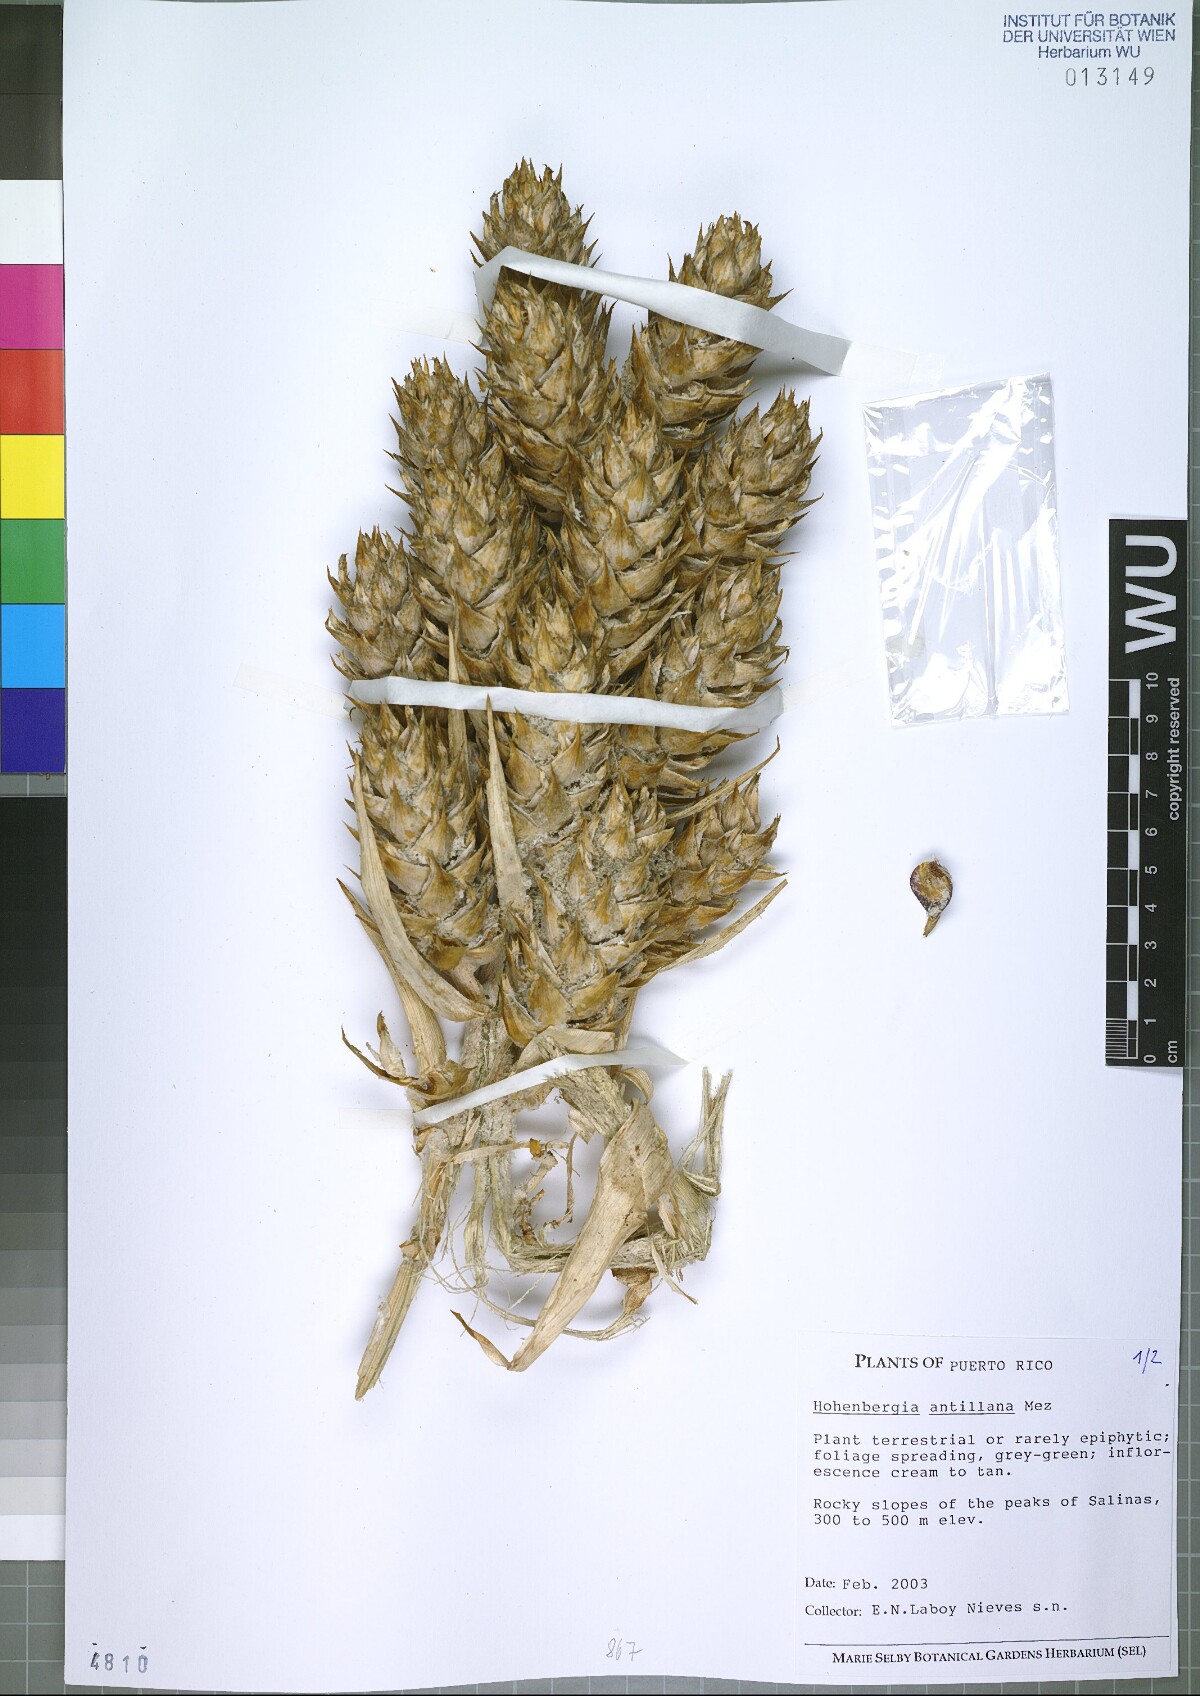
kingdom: Plantae
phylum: Tracheophyta
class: Liliopsida
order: Poales
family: Bromeliaceae
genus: Wittmackia
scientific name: Wittmackia antillana
